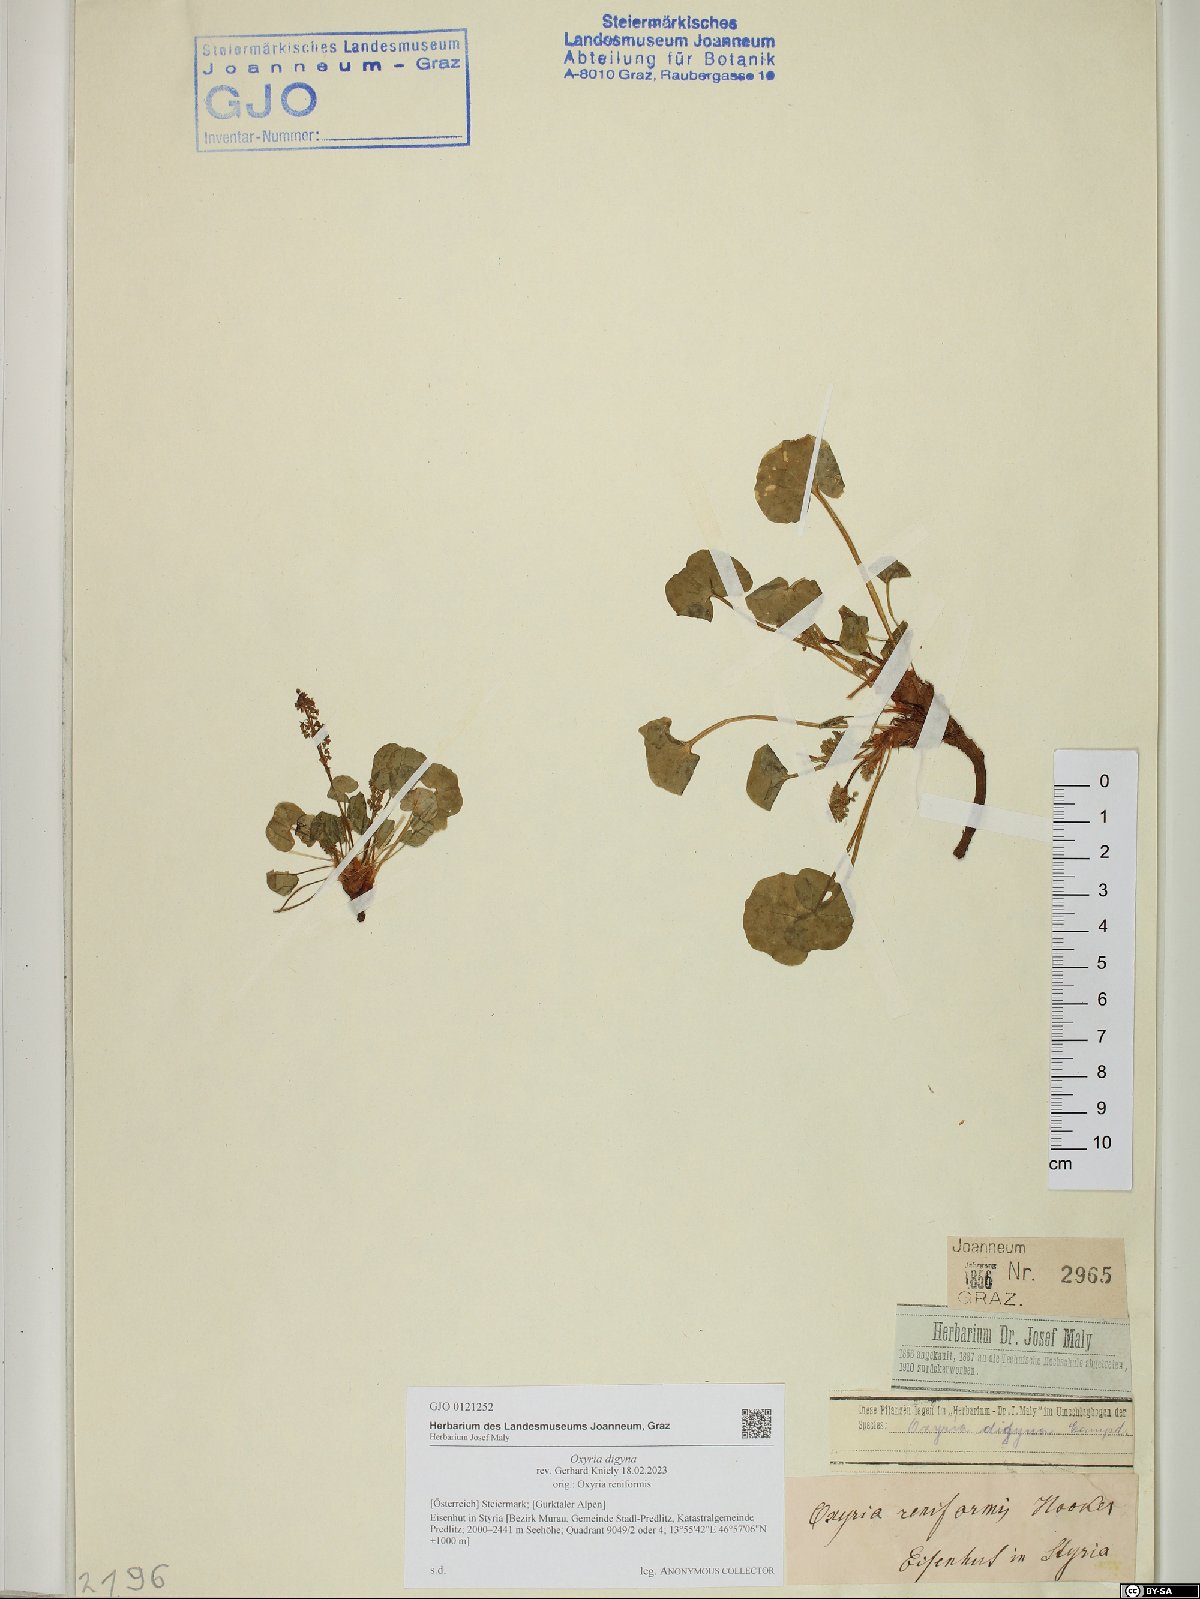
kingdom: Plantae
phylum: Tracheophyta
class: Magnoliopsida
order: Caryophyllales
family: Polygonaceae
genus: Oxyria
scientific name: Oxyria digyna
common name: Alpine mountain-sorrel
